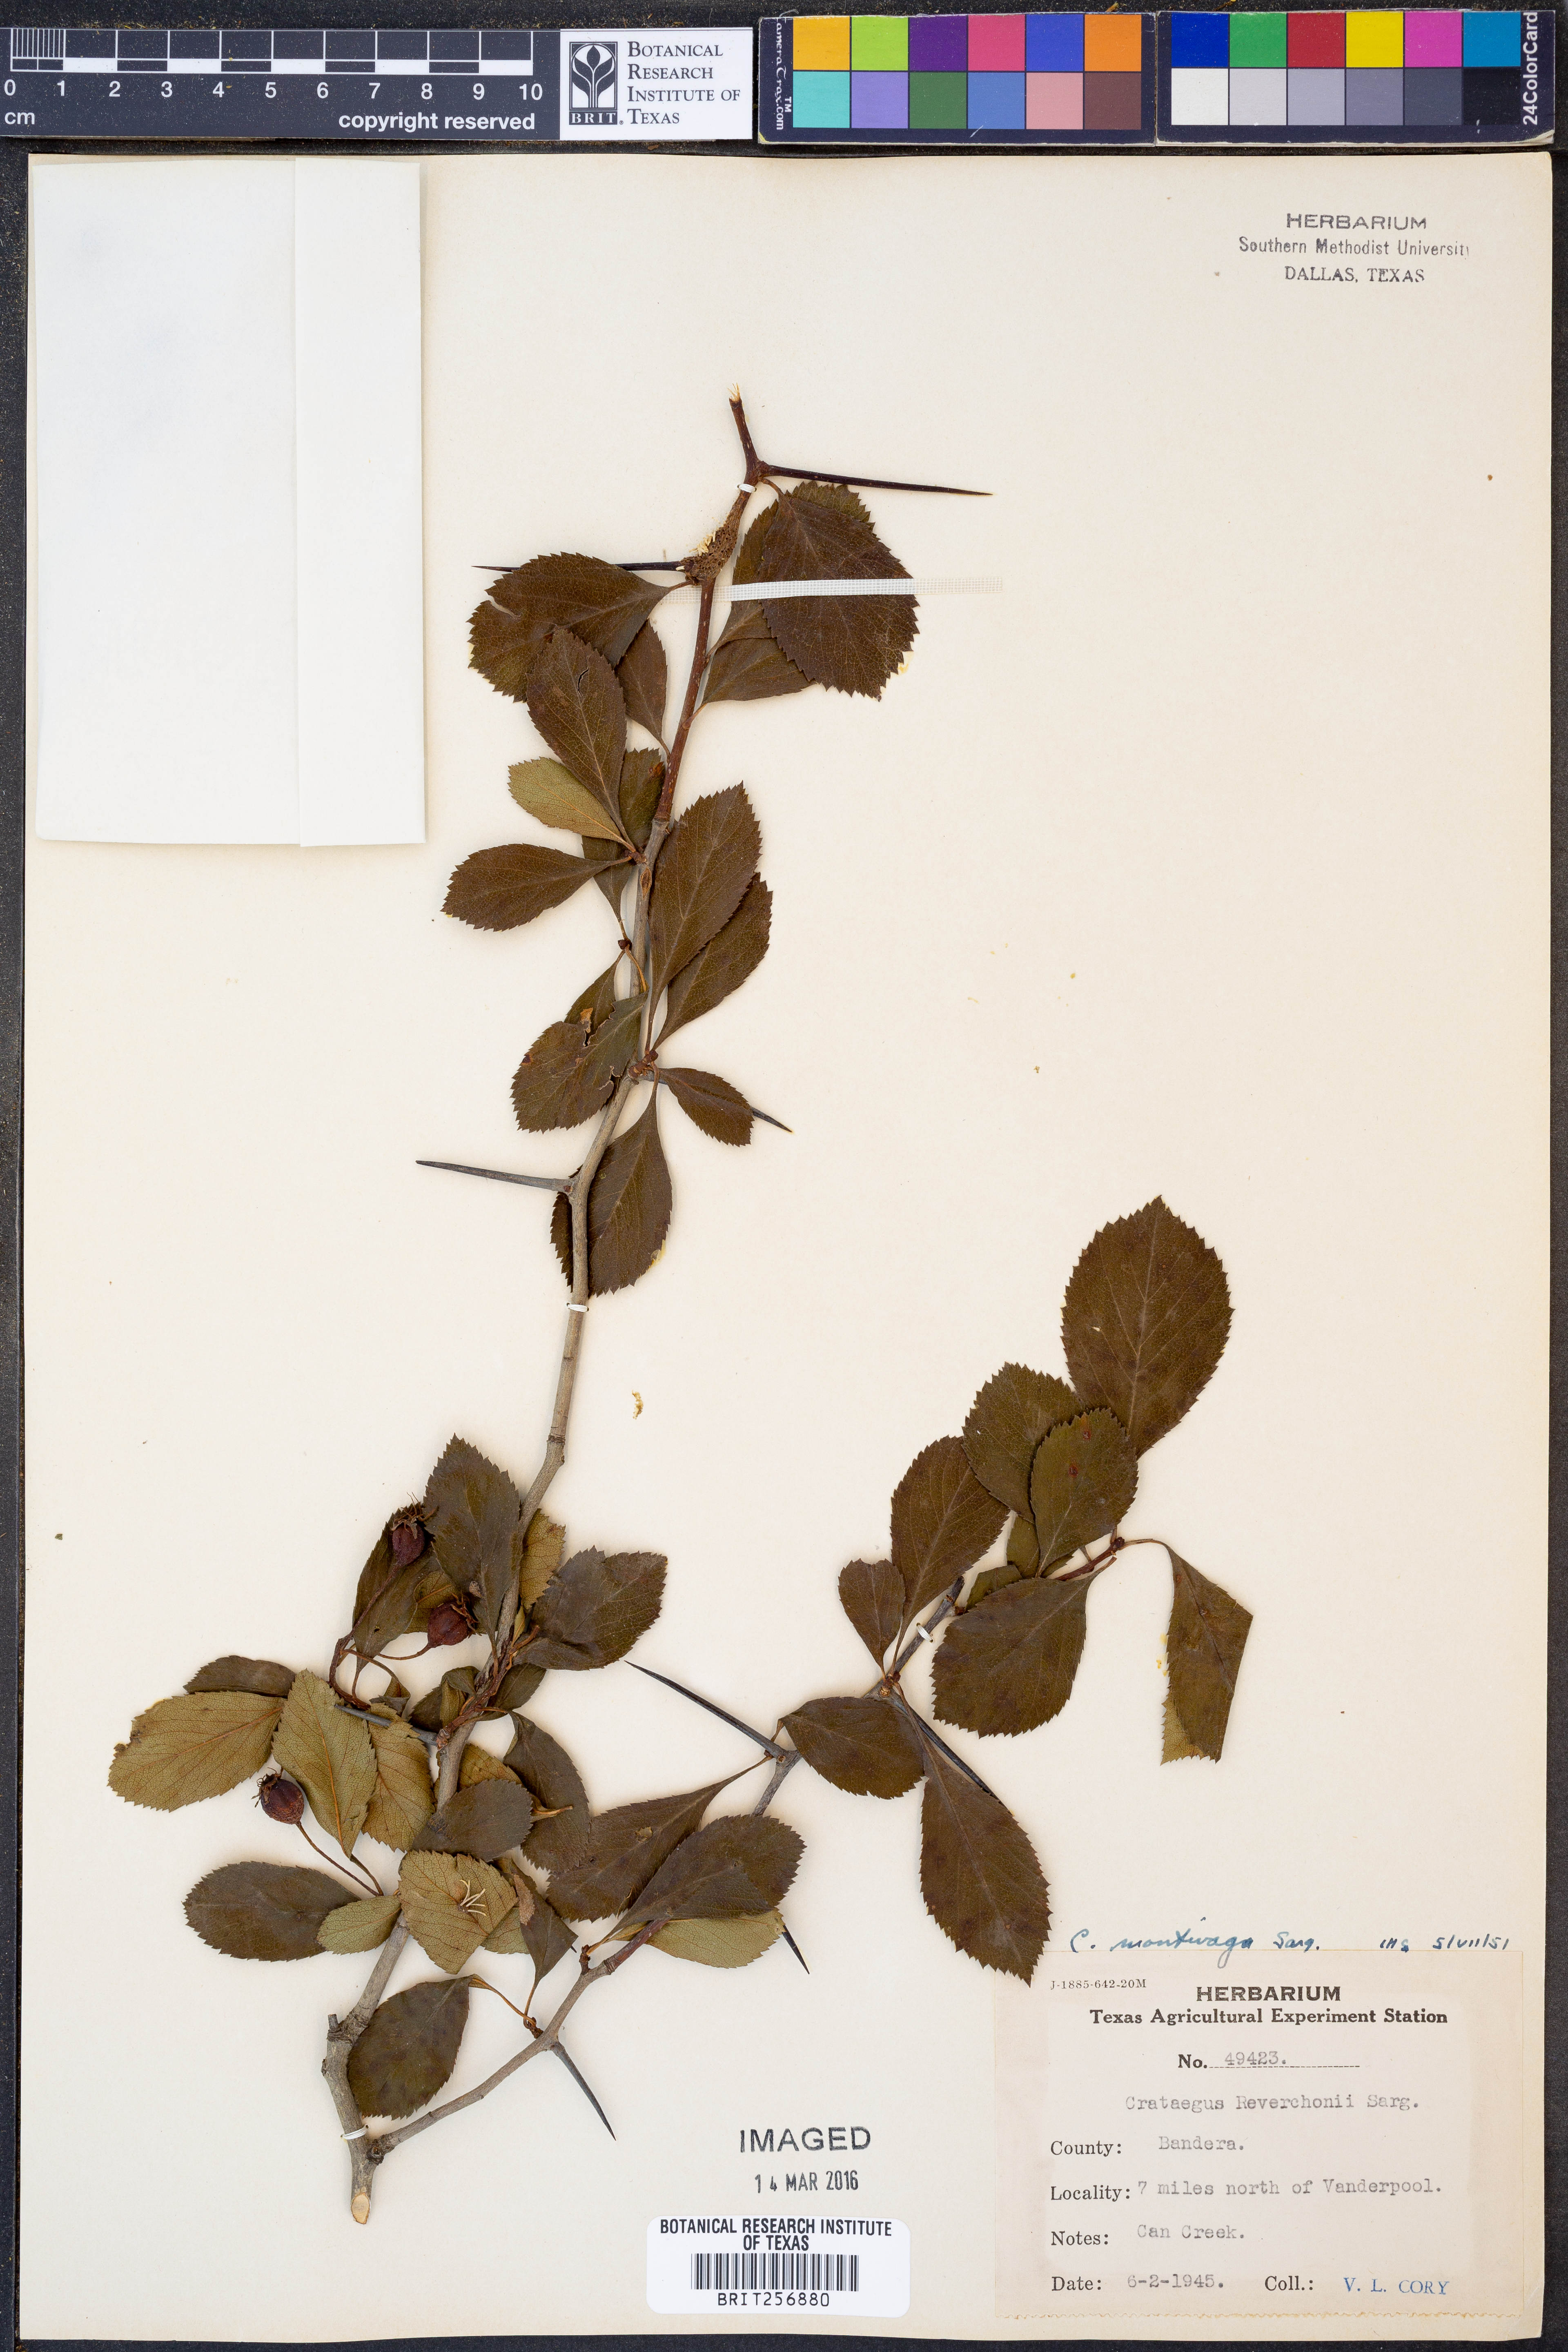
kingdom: Plantae
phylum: Tracheophyta
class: Magnoliopsida
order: Rosales
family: Rosaceae
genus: Crataegus
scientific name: Crataegus tracyi
